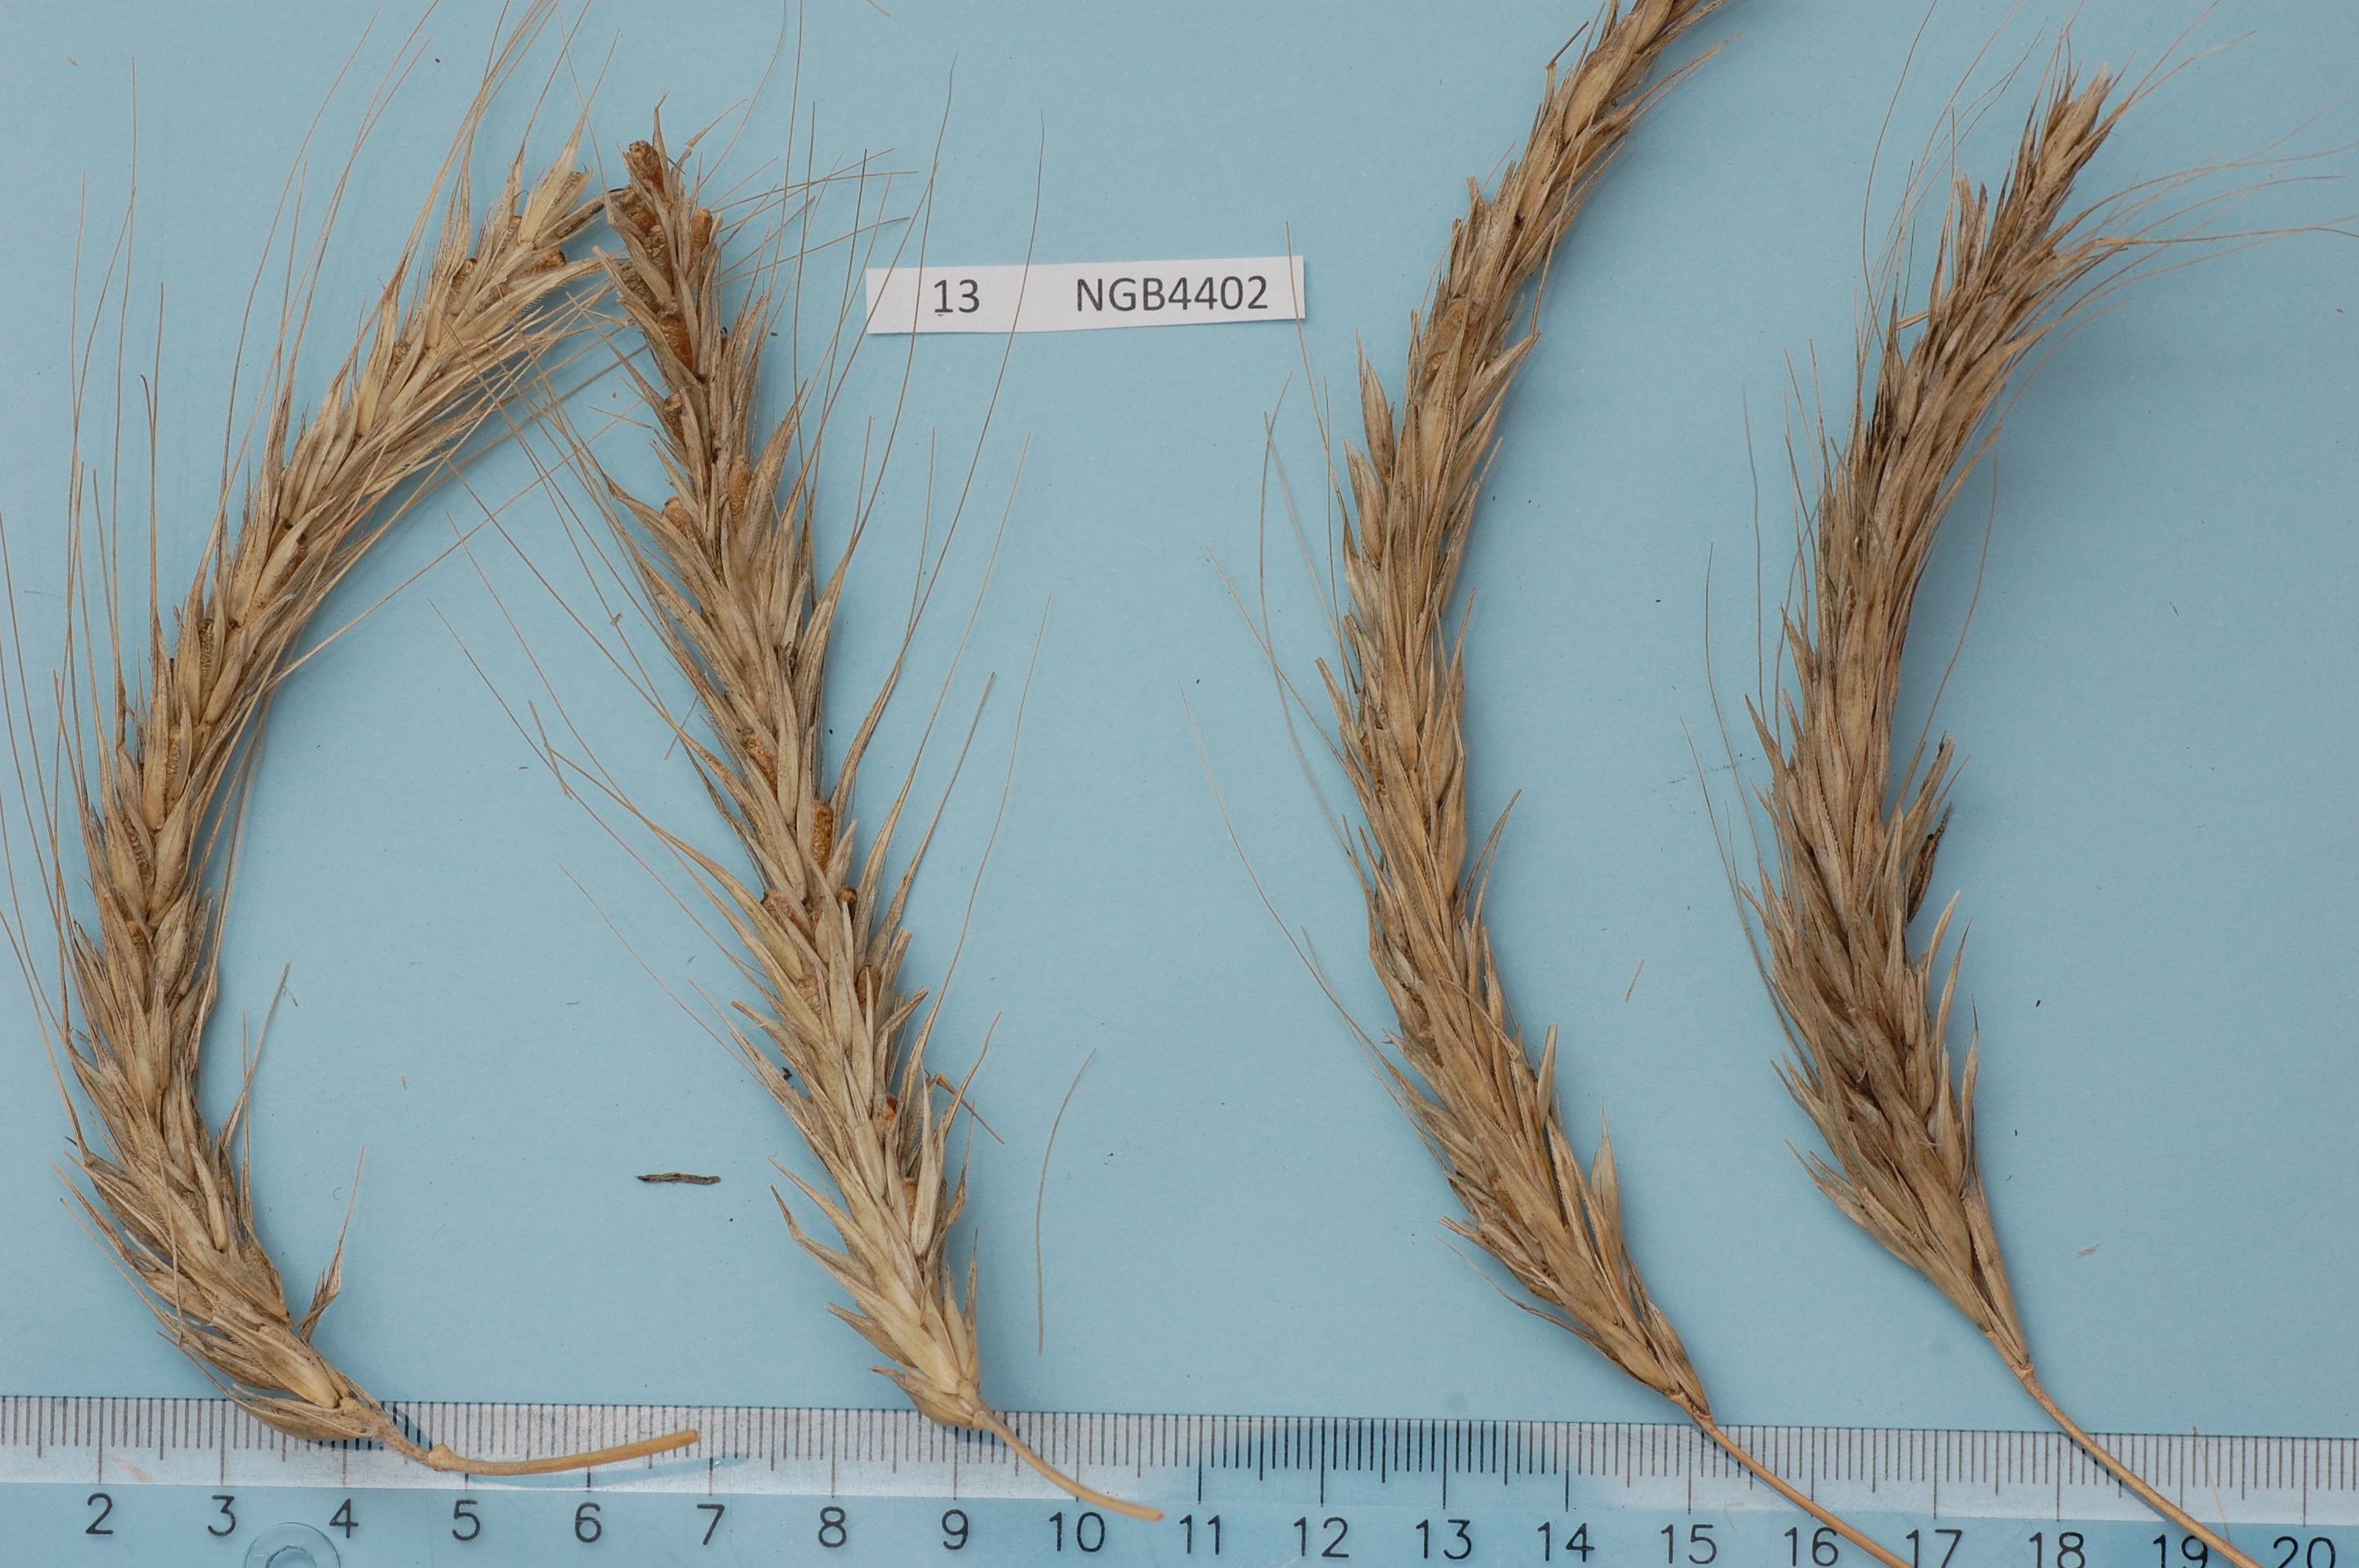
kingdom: Plantae
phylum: Tracheophyta
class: Liliopsida
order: Poales
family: Poaceae
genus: Secale
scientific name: Secale cereale
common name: Rye
